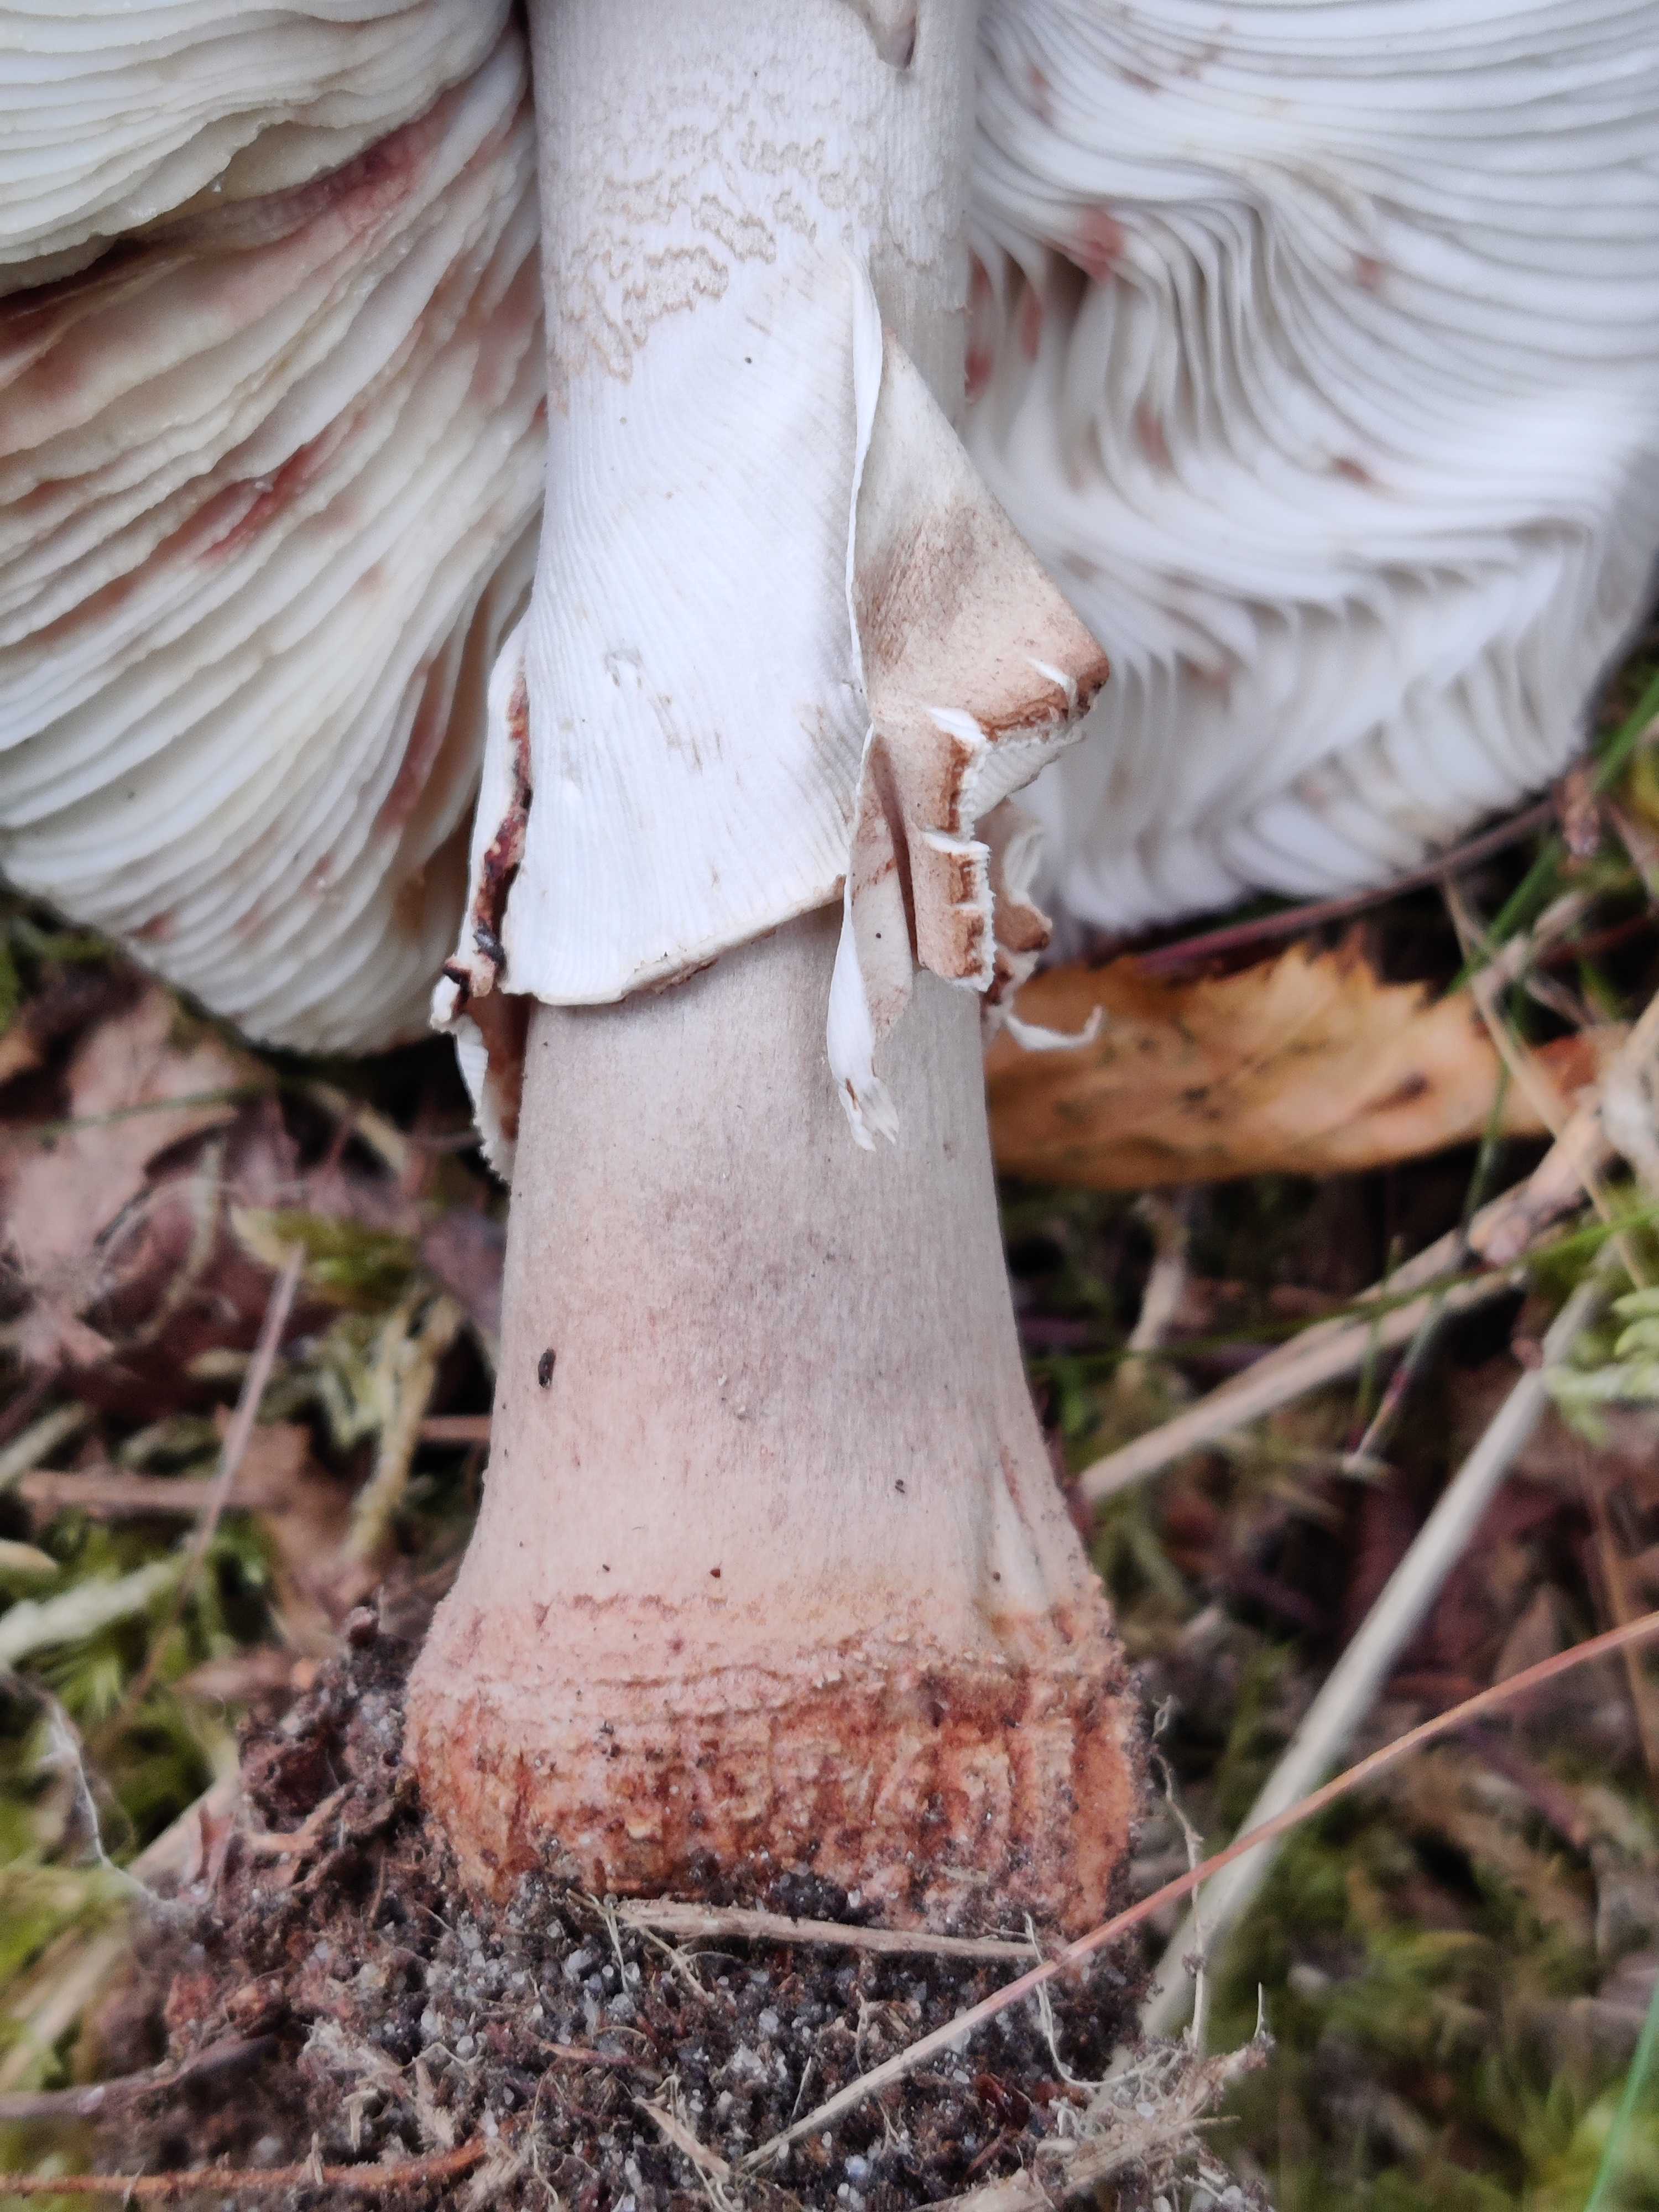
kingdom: Fungi
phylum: Basidiomycota
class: Agaricomycetes
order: Agaricales
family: Amanitaceae
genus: Amanita
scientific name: Amanita rubescens
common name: rødmende fluesvamp
